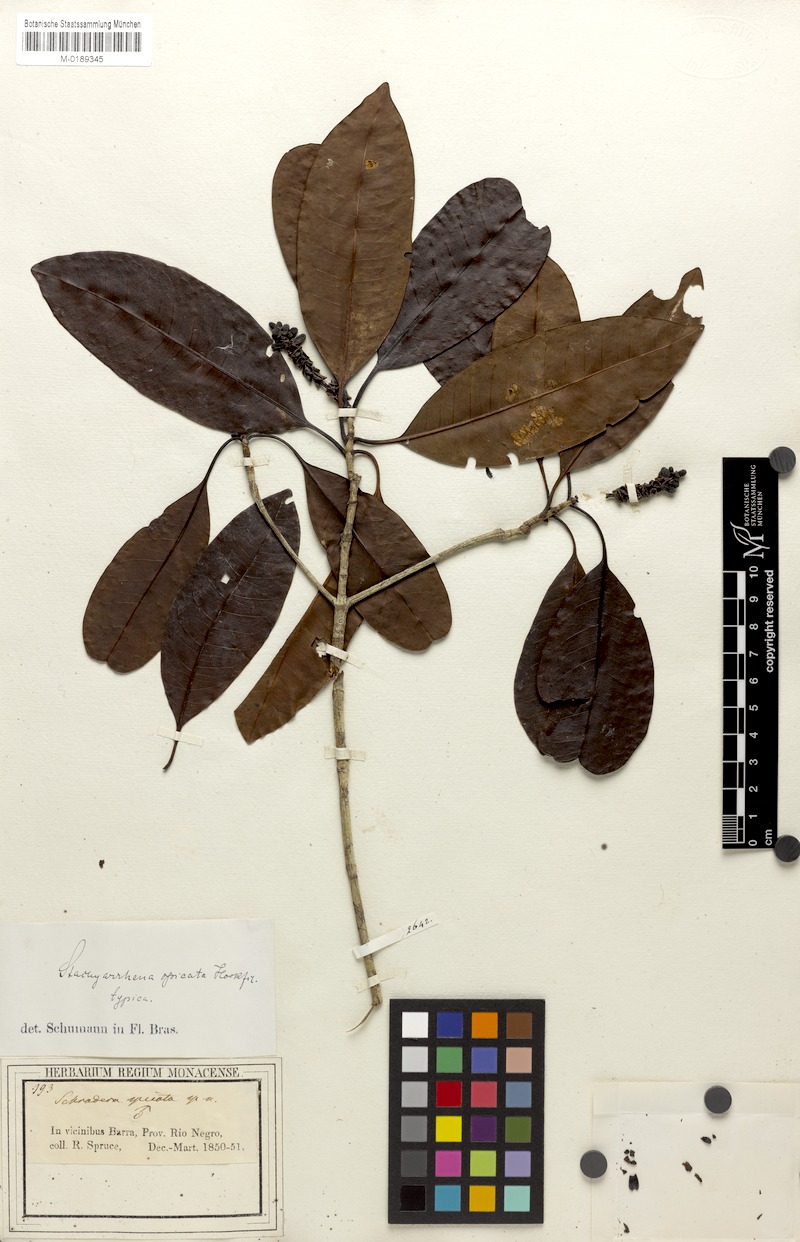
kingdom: Plantae
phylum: Tracheophyta
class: Magnoliopsida
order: Gentianales
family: Rubiaceae
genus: Stachyarrhena
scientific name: Stachyarrhena spicata
